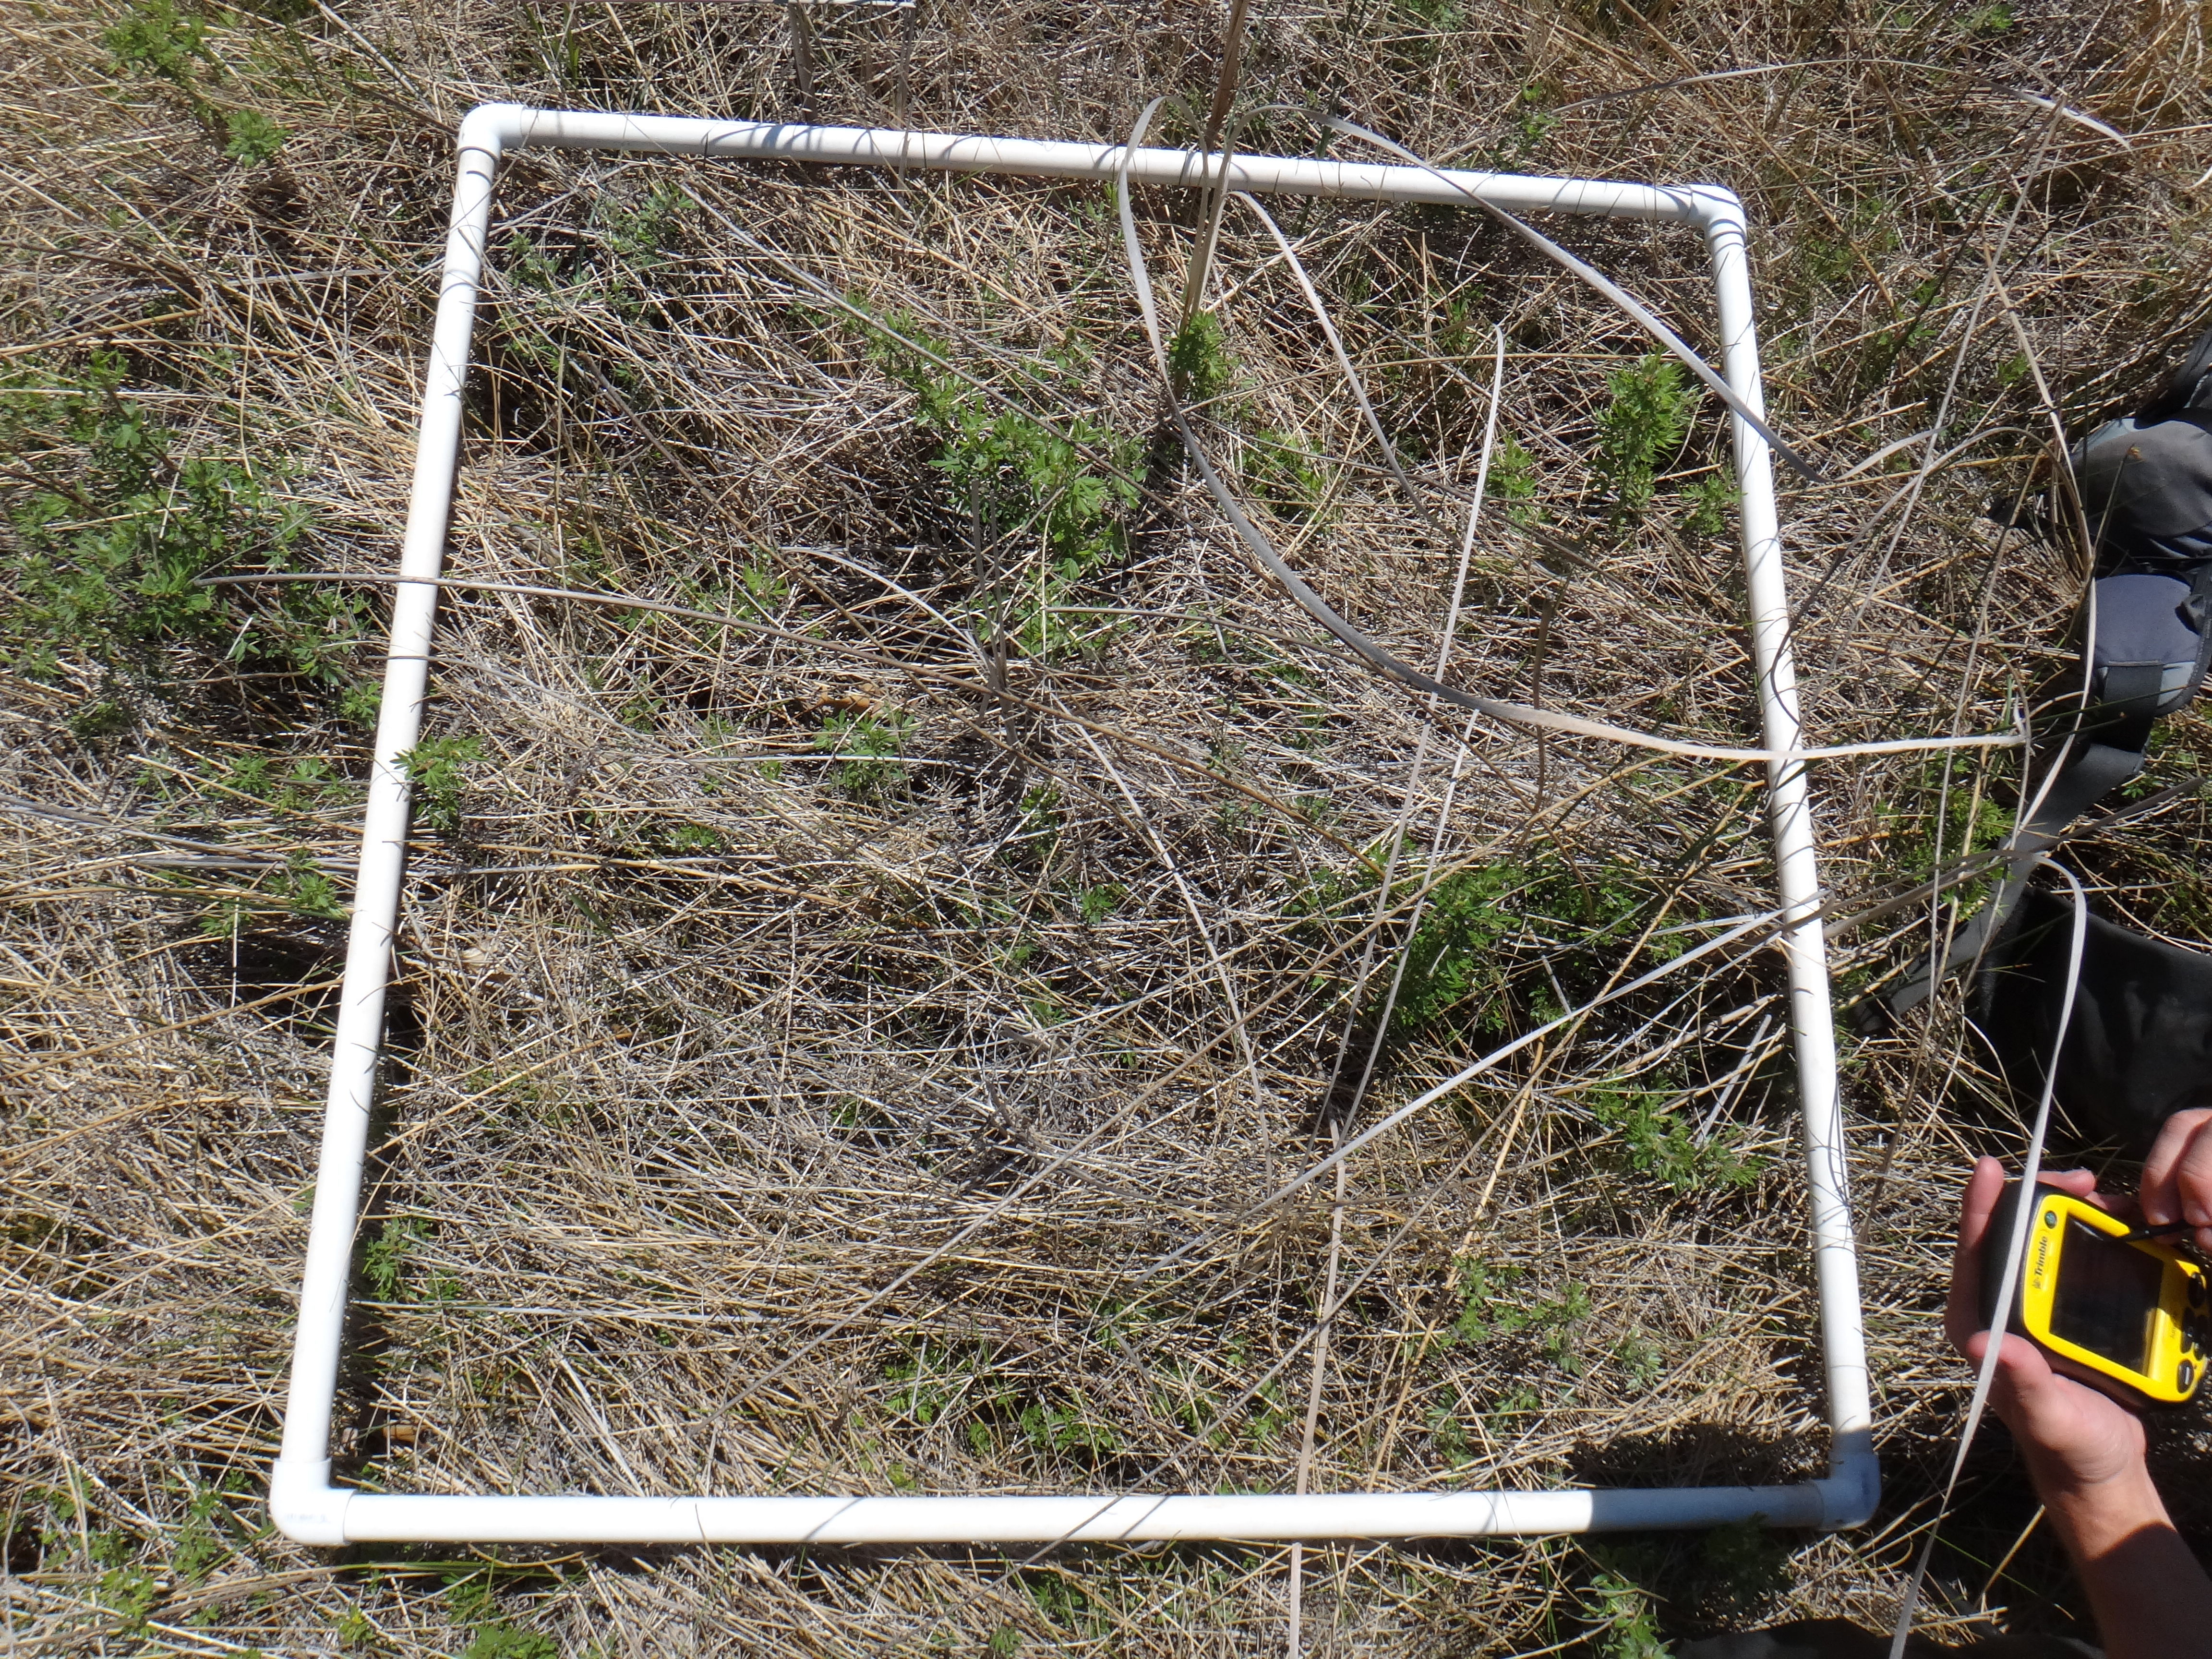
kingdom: Plantae
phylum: Tracheophyta
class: Liliopsida
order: Poales
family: Cyperaceae
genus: Schoenoplectus
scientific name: Schoenoplectus acutus
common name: Hardstem bulrush
